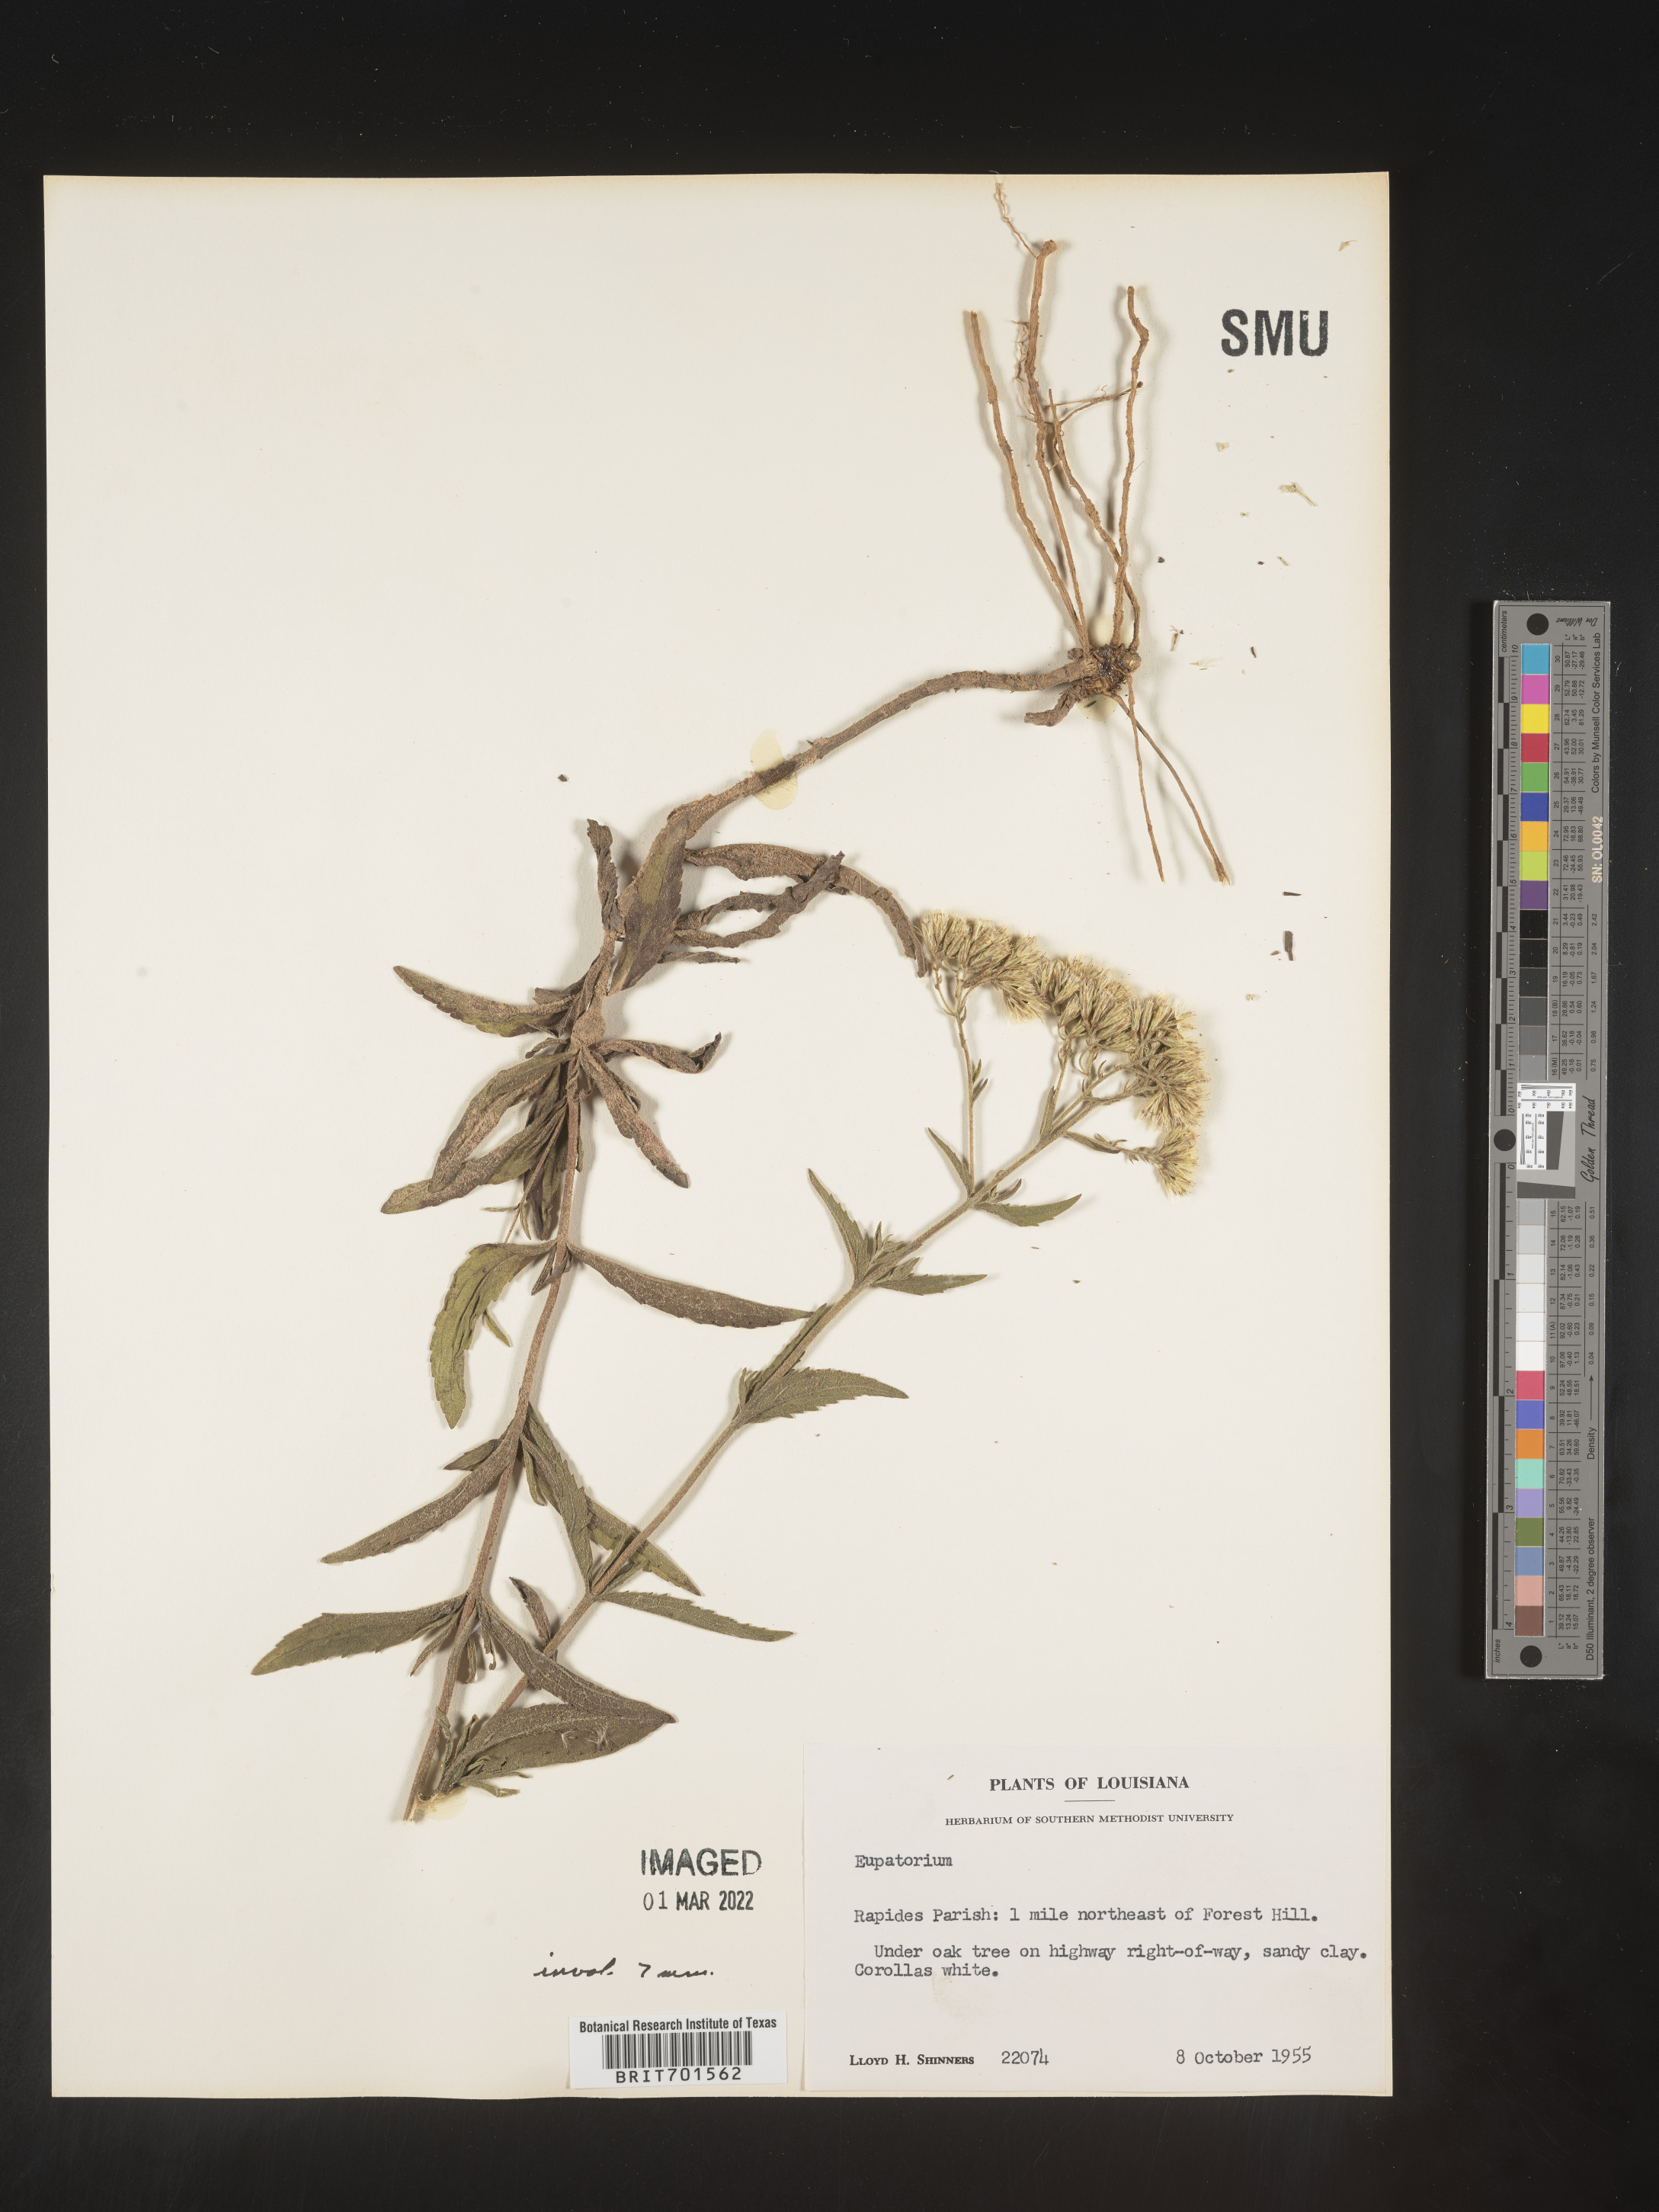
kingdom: Plantae
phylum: Tracheophyta
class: Magnoliopsida
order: Asterales
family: Asteraceae
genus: Eupatorium
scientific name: Eupatorium leucolepis
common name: Justiceweed
